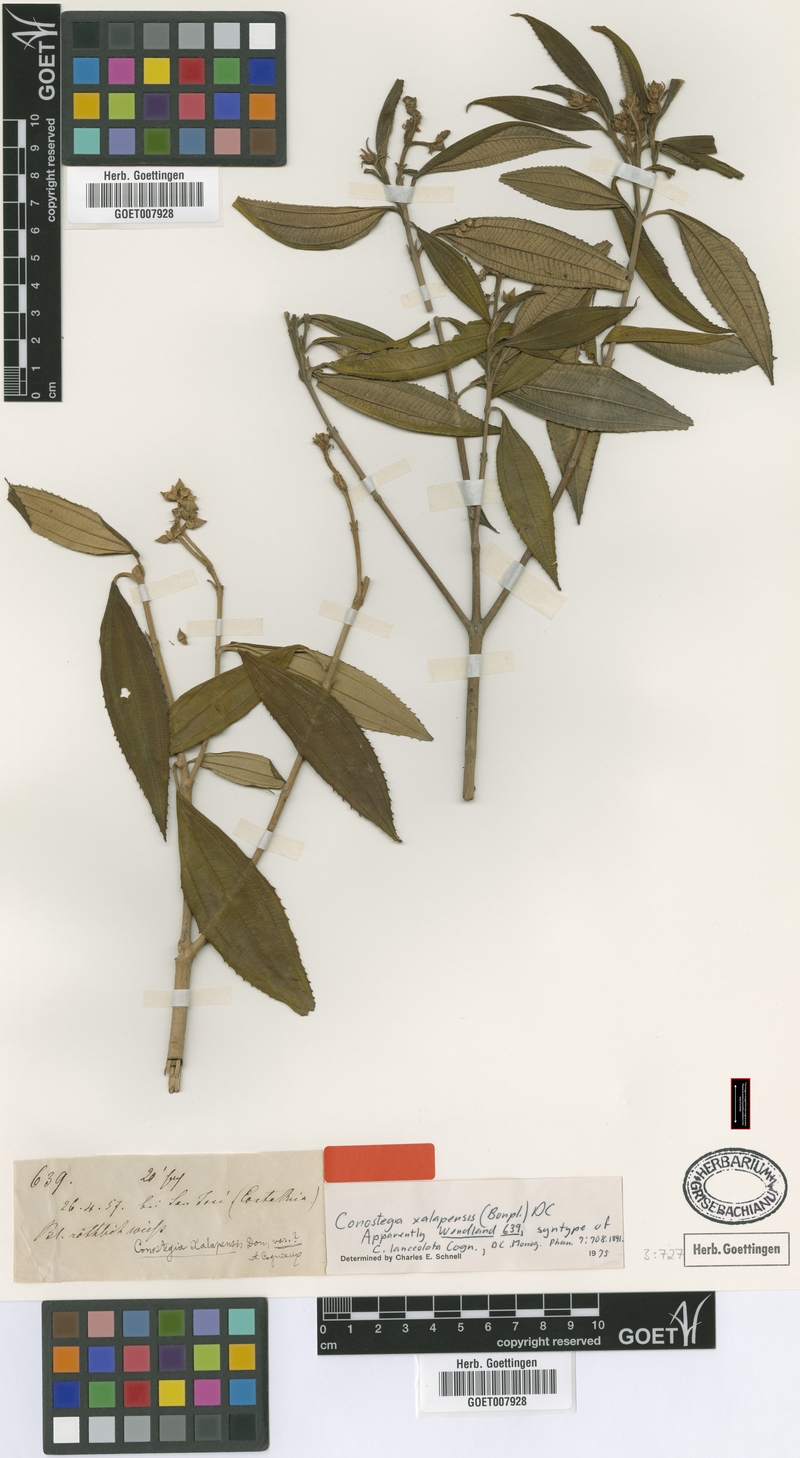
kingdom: Plantae
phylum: Tracheophyta
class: Magnoliopsida
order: Myrtales
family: Melastomataceae
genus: Miconia
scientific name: Miconia xalapensis
